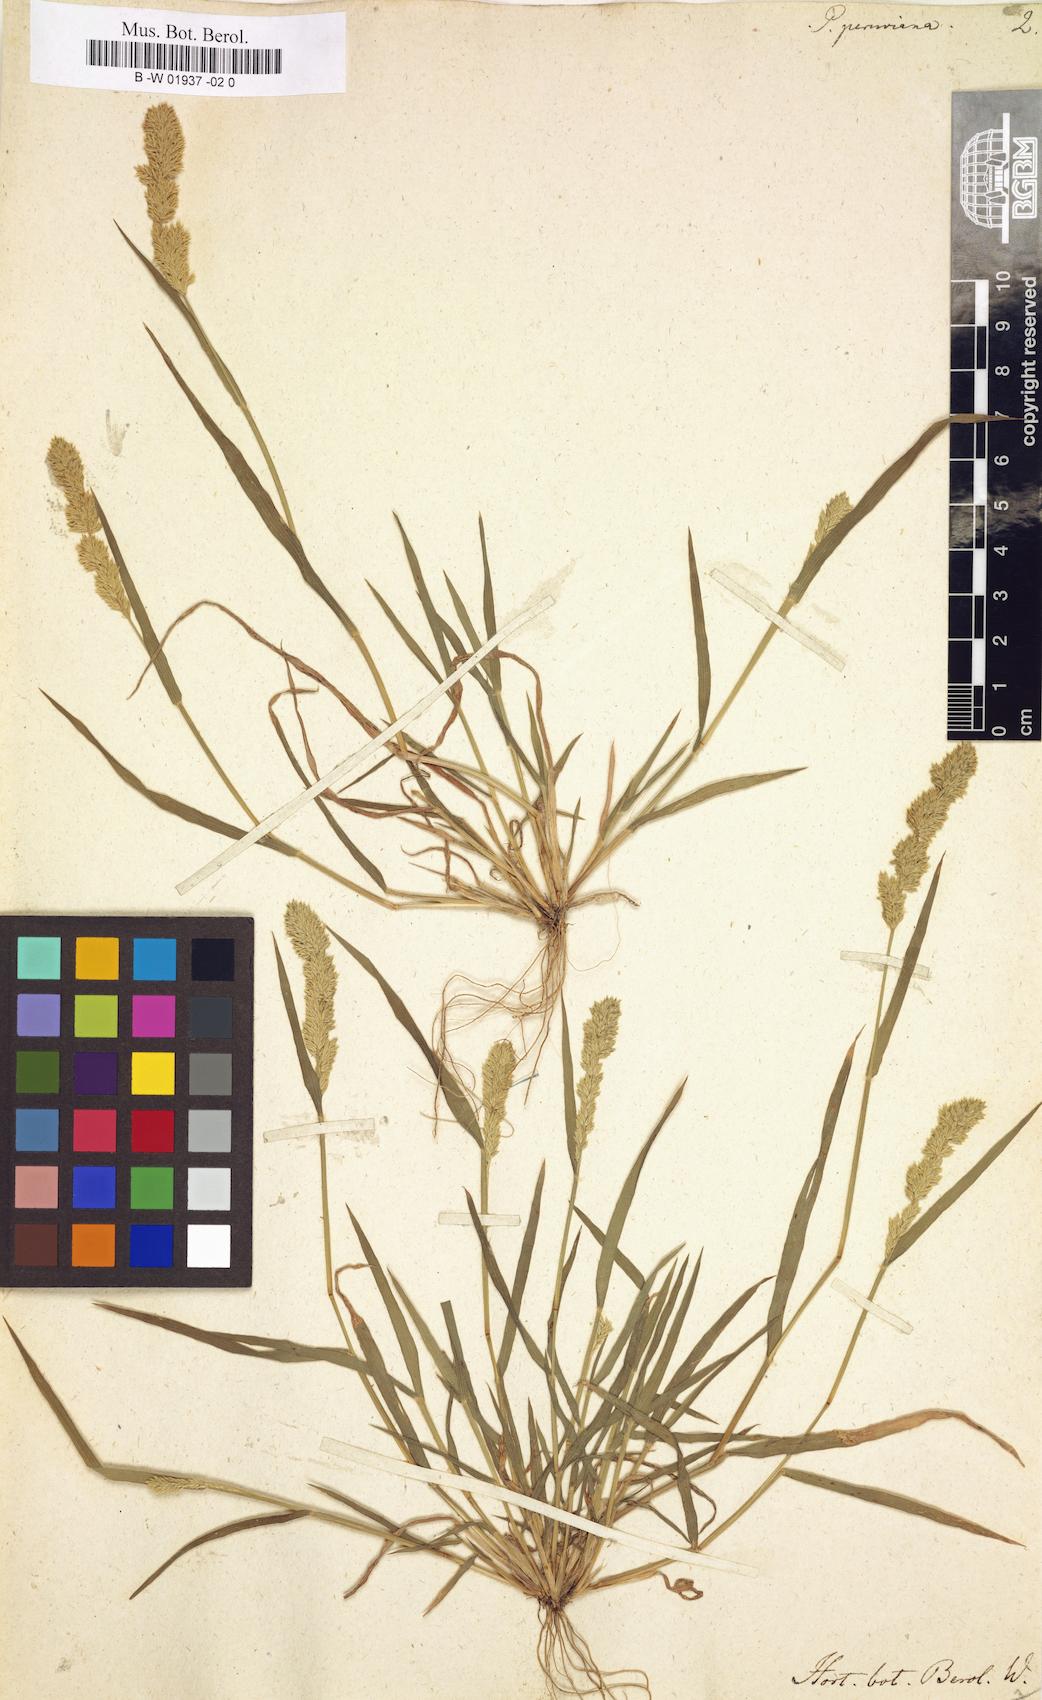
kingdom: Plantae
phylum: Tracheophyta
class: Liliopsida
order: Poales
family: Poaceae
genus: Eragrostis
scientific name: Eragrostis peruviana
